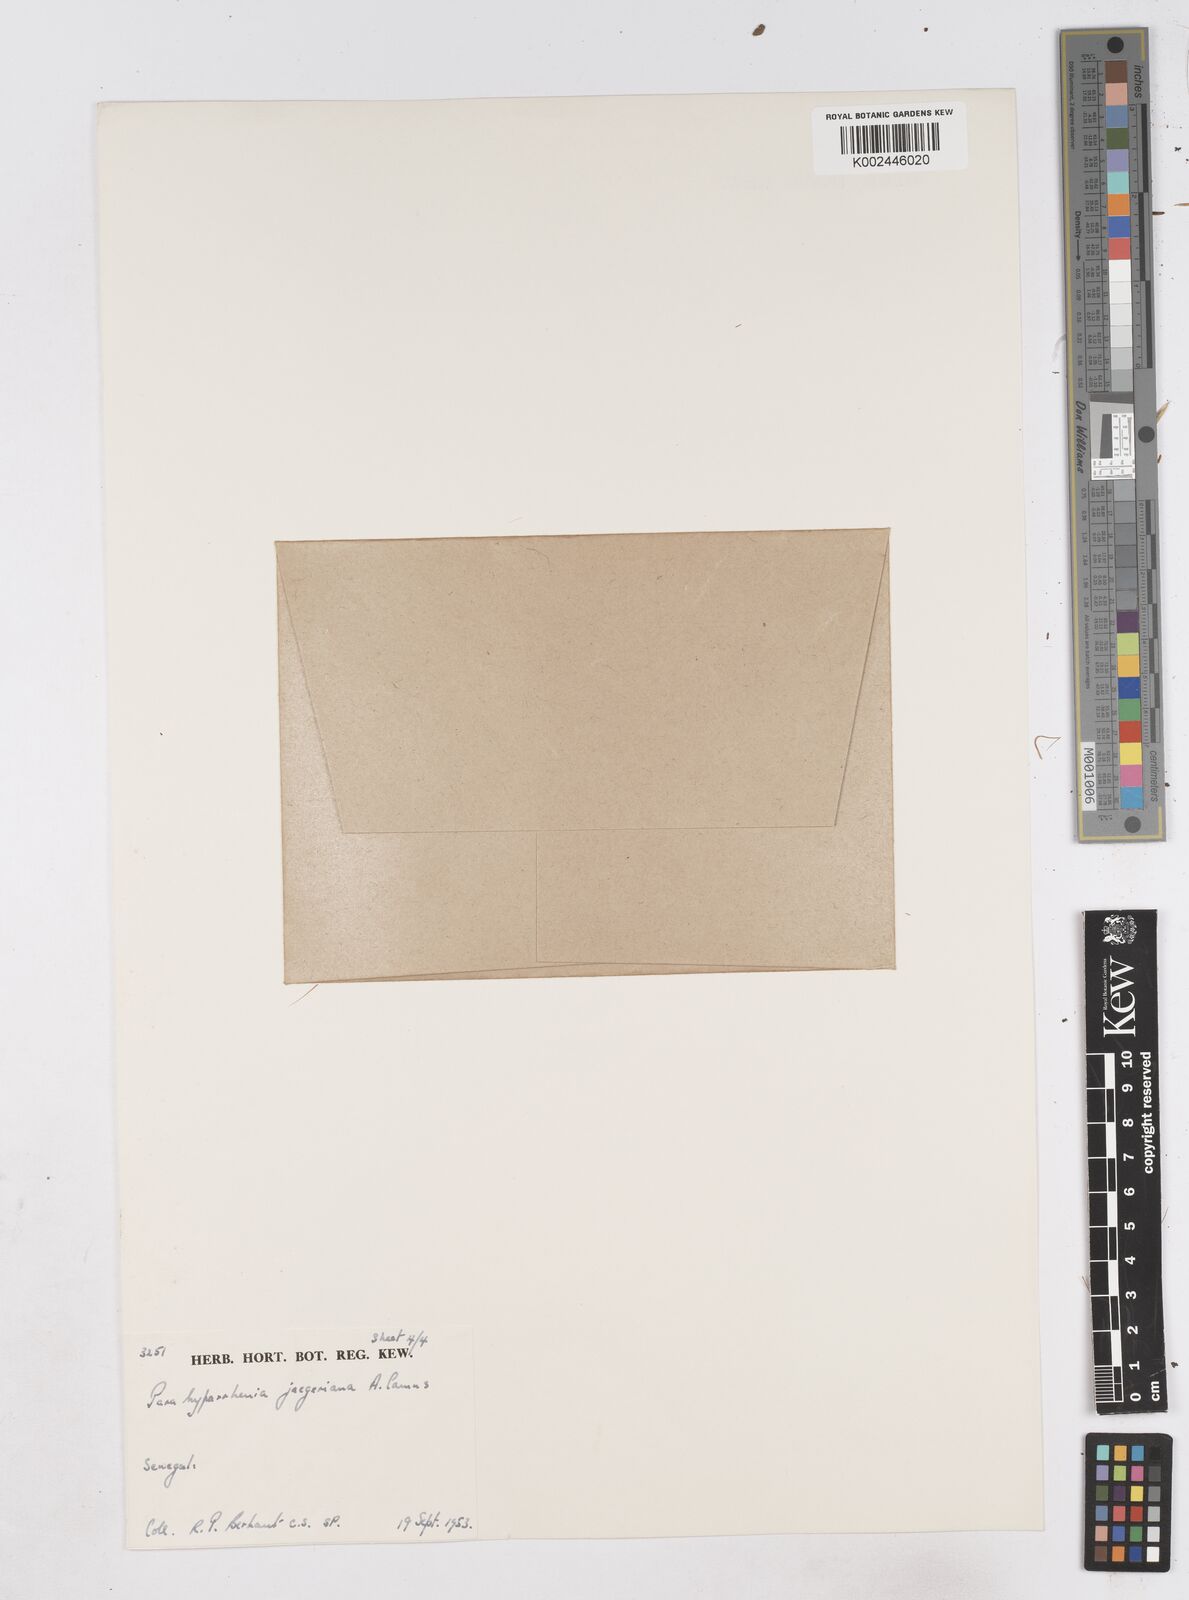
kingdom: Plantae
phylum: Tracheophyta
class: Liliopsida
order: Poales
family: Poaceae
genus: Parahyparrhenia
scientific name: Parahyparrhenia annua
